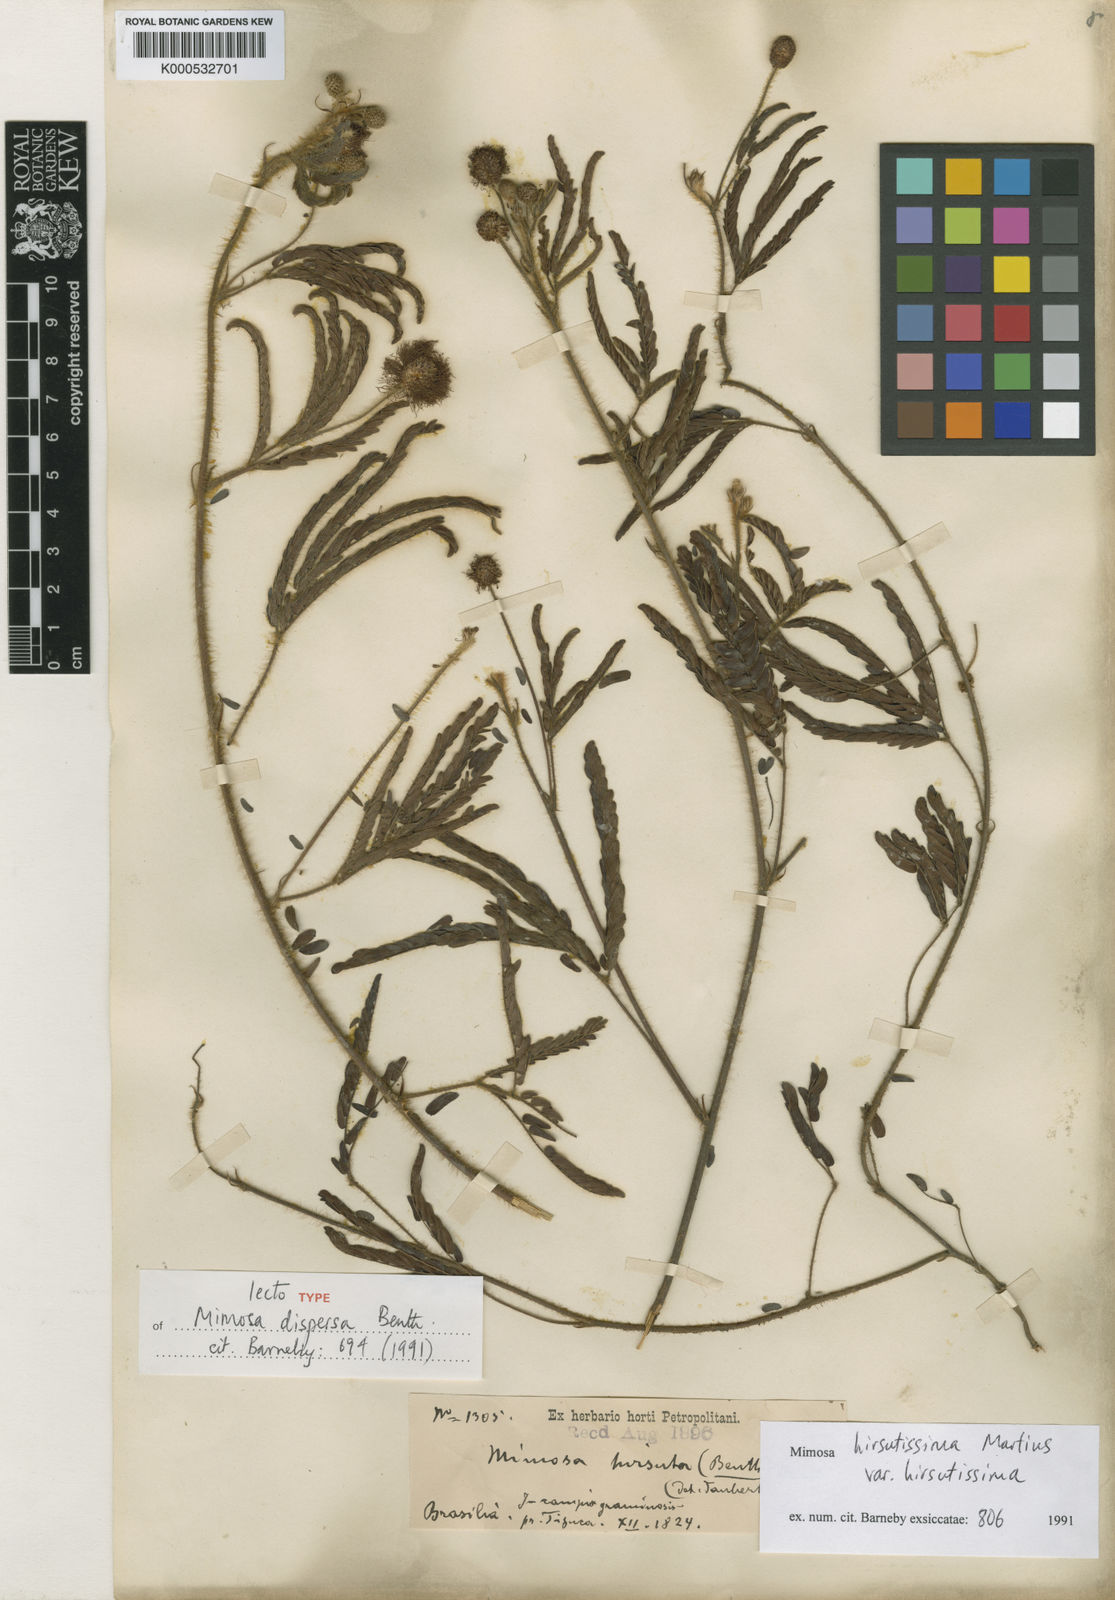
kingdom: Plantae
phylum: Tracheophyta
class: Magnoliopsida
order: Fabales
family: Fabaceae
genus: Mimosa
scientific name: Mimosa hirsutissima
